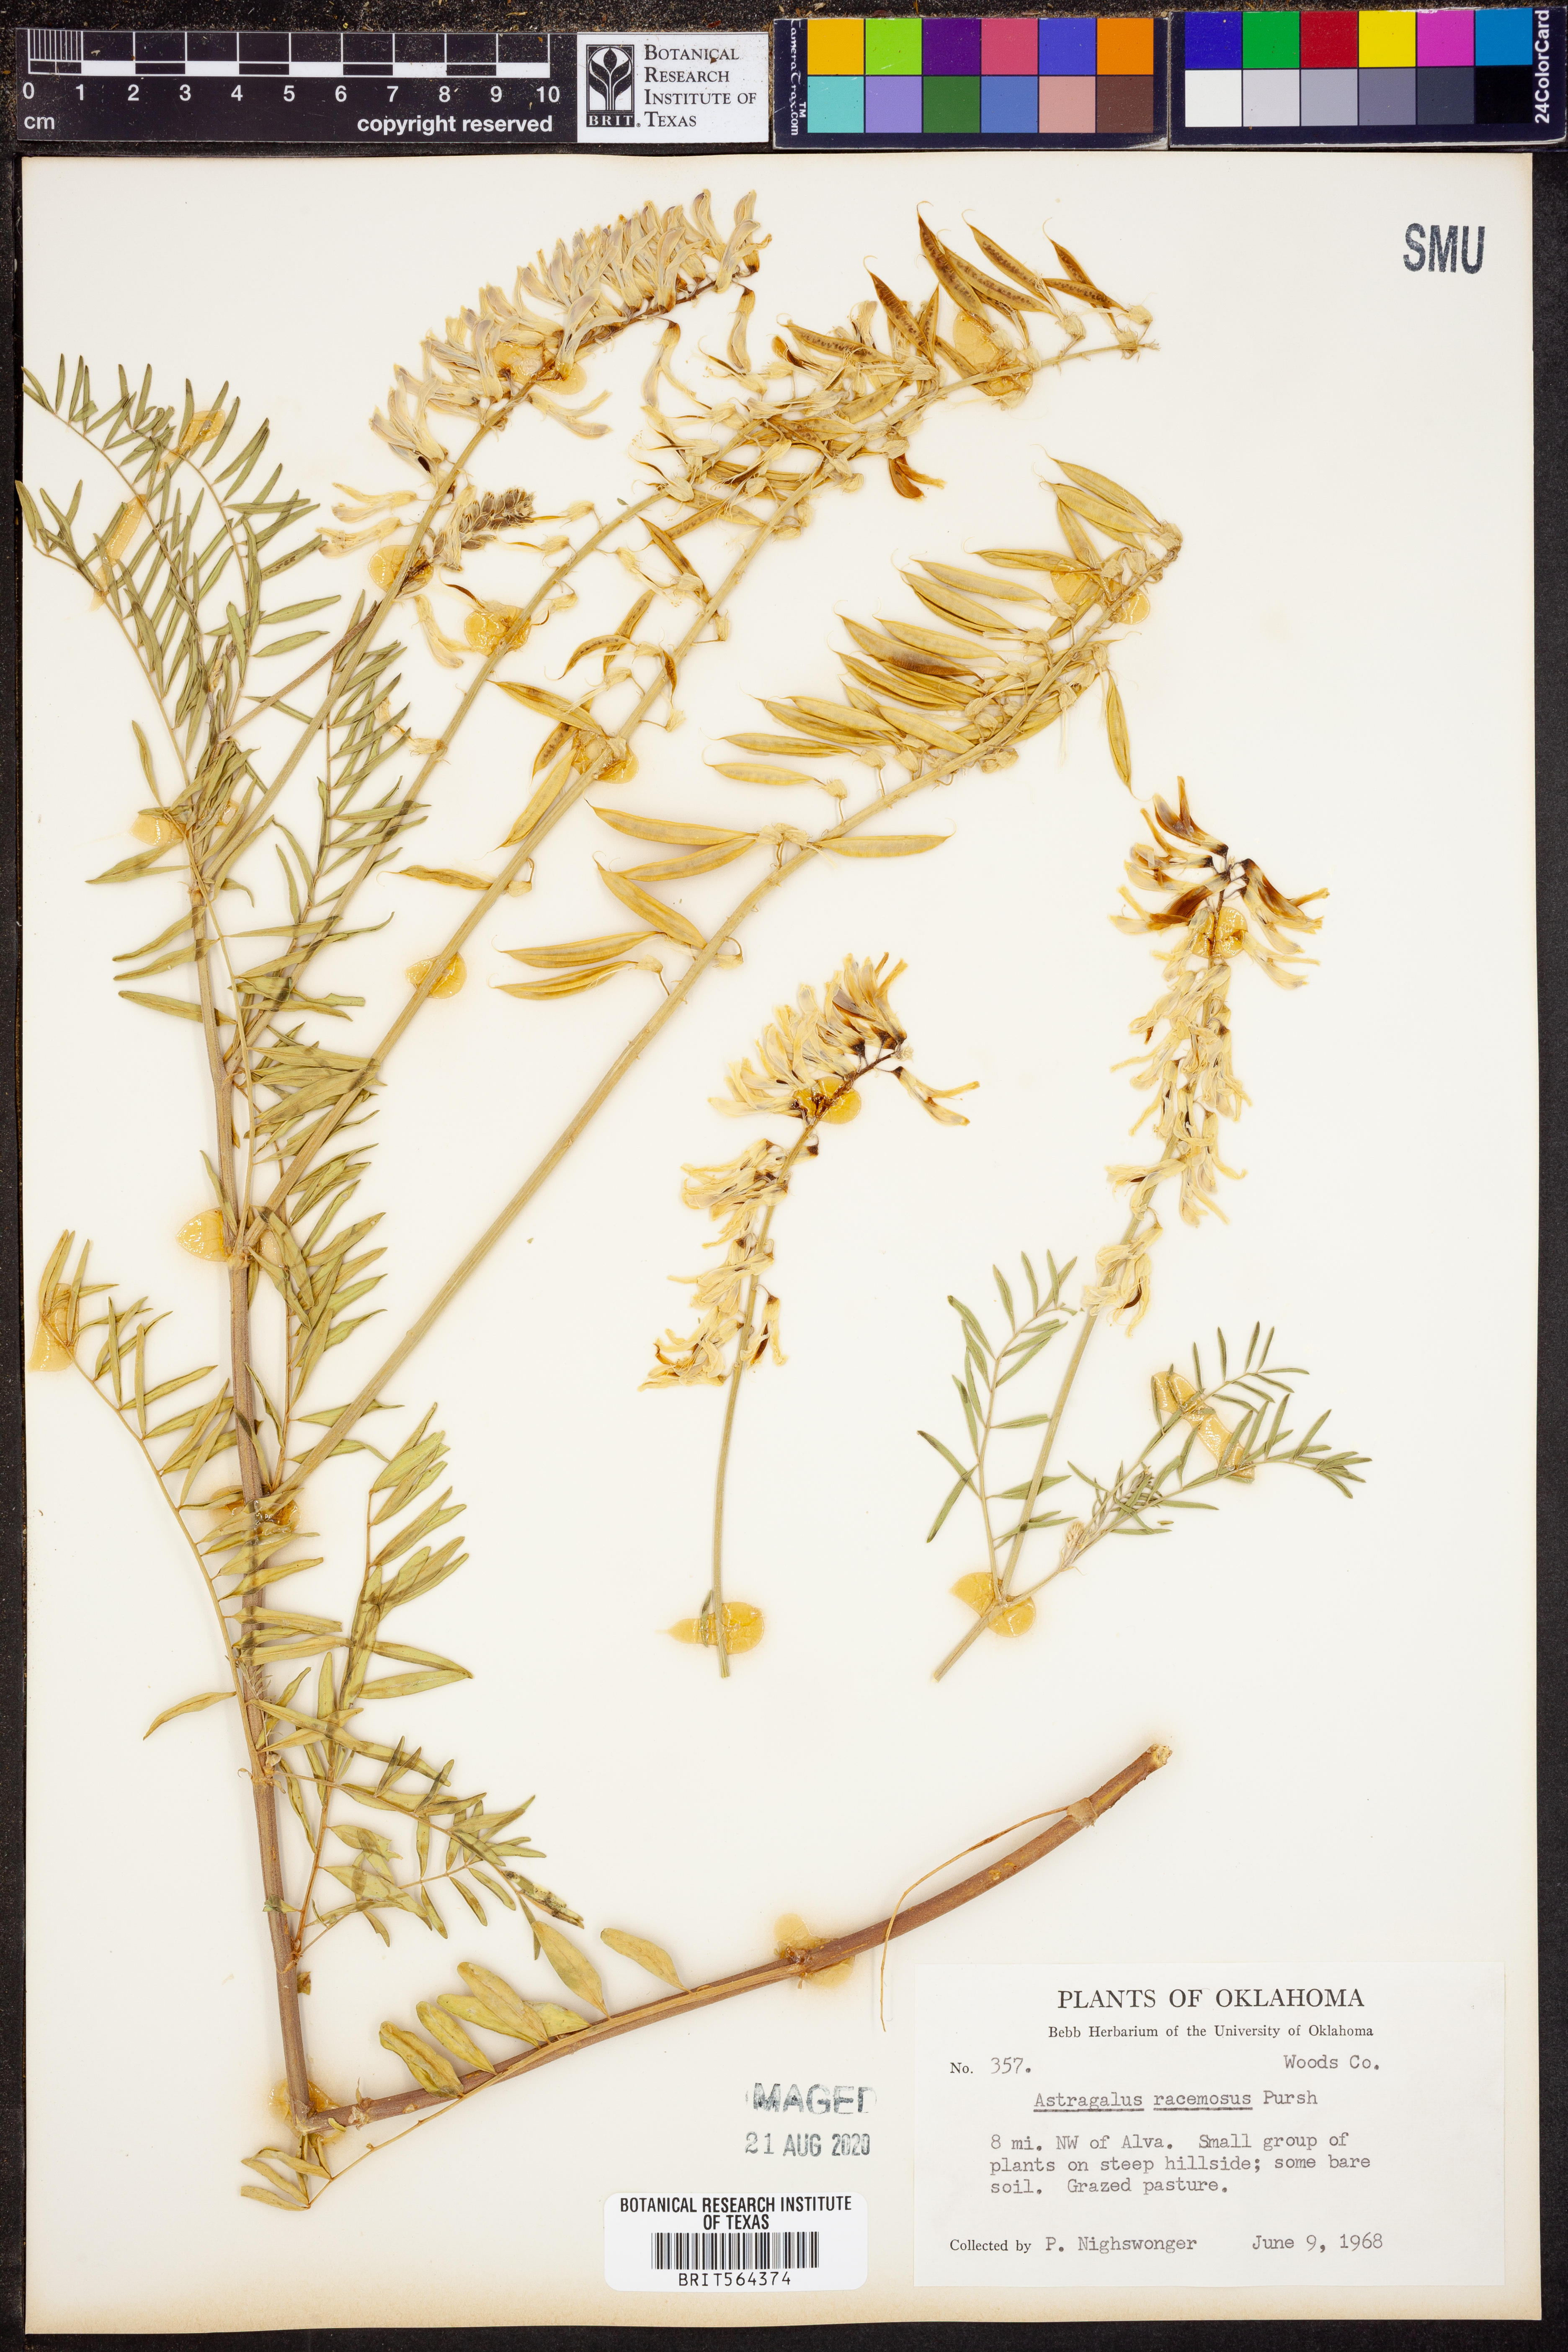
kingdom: Plantae
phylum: Tracheophyta
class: Magnoliopsida
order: Fabales
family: Fabaceae
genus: Astragalus
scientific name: Astragalus racemosus
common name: Alkali milk-vetch
